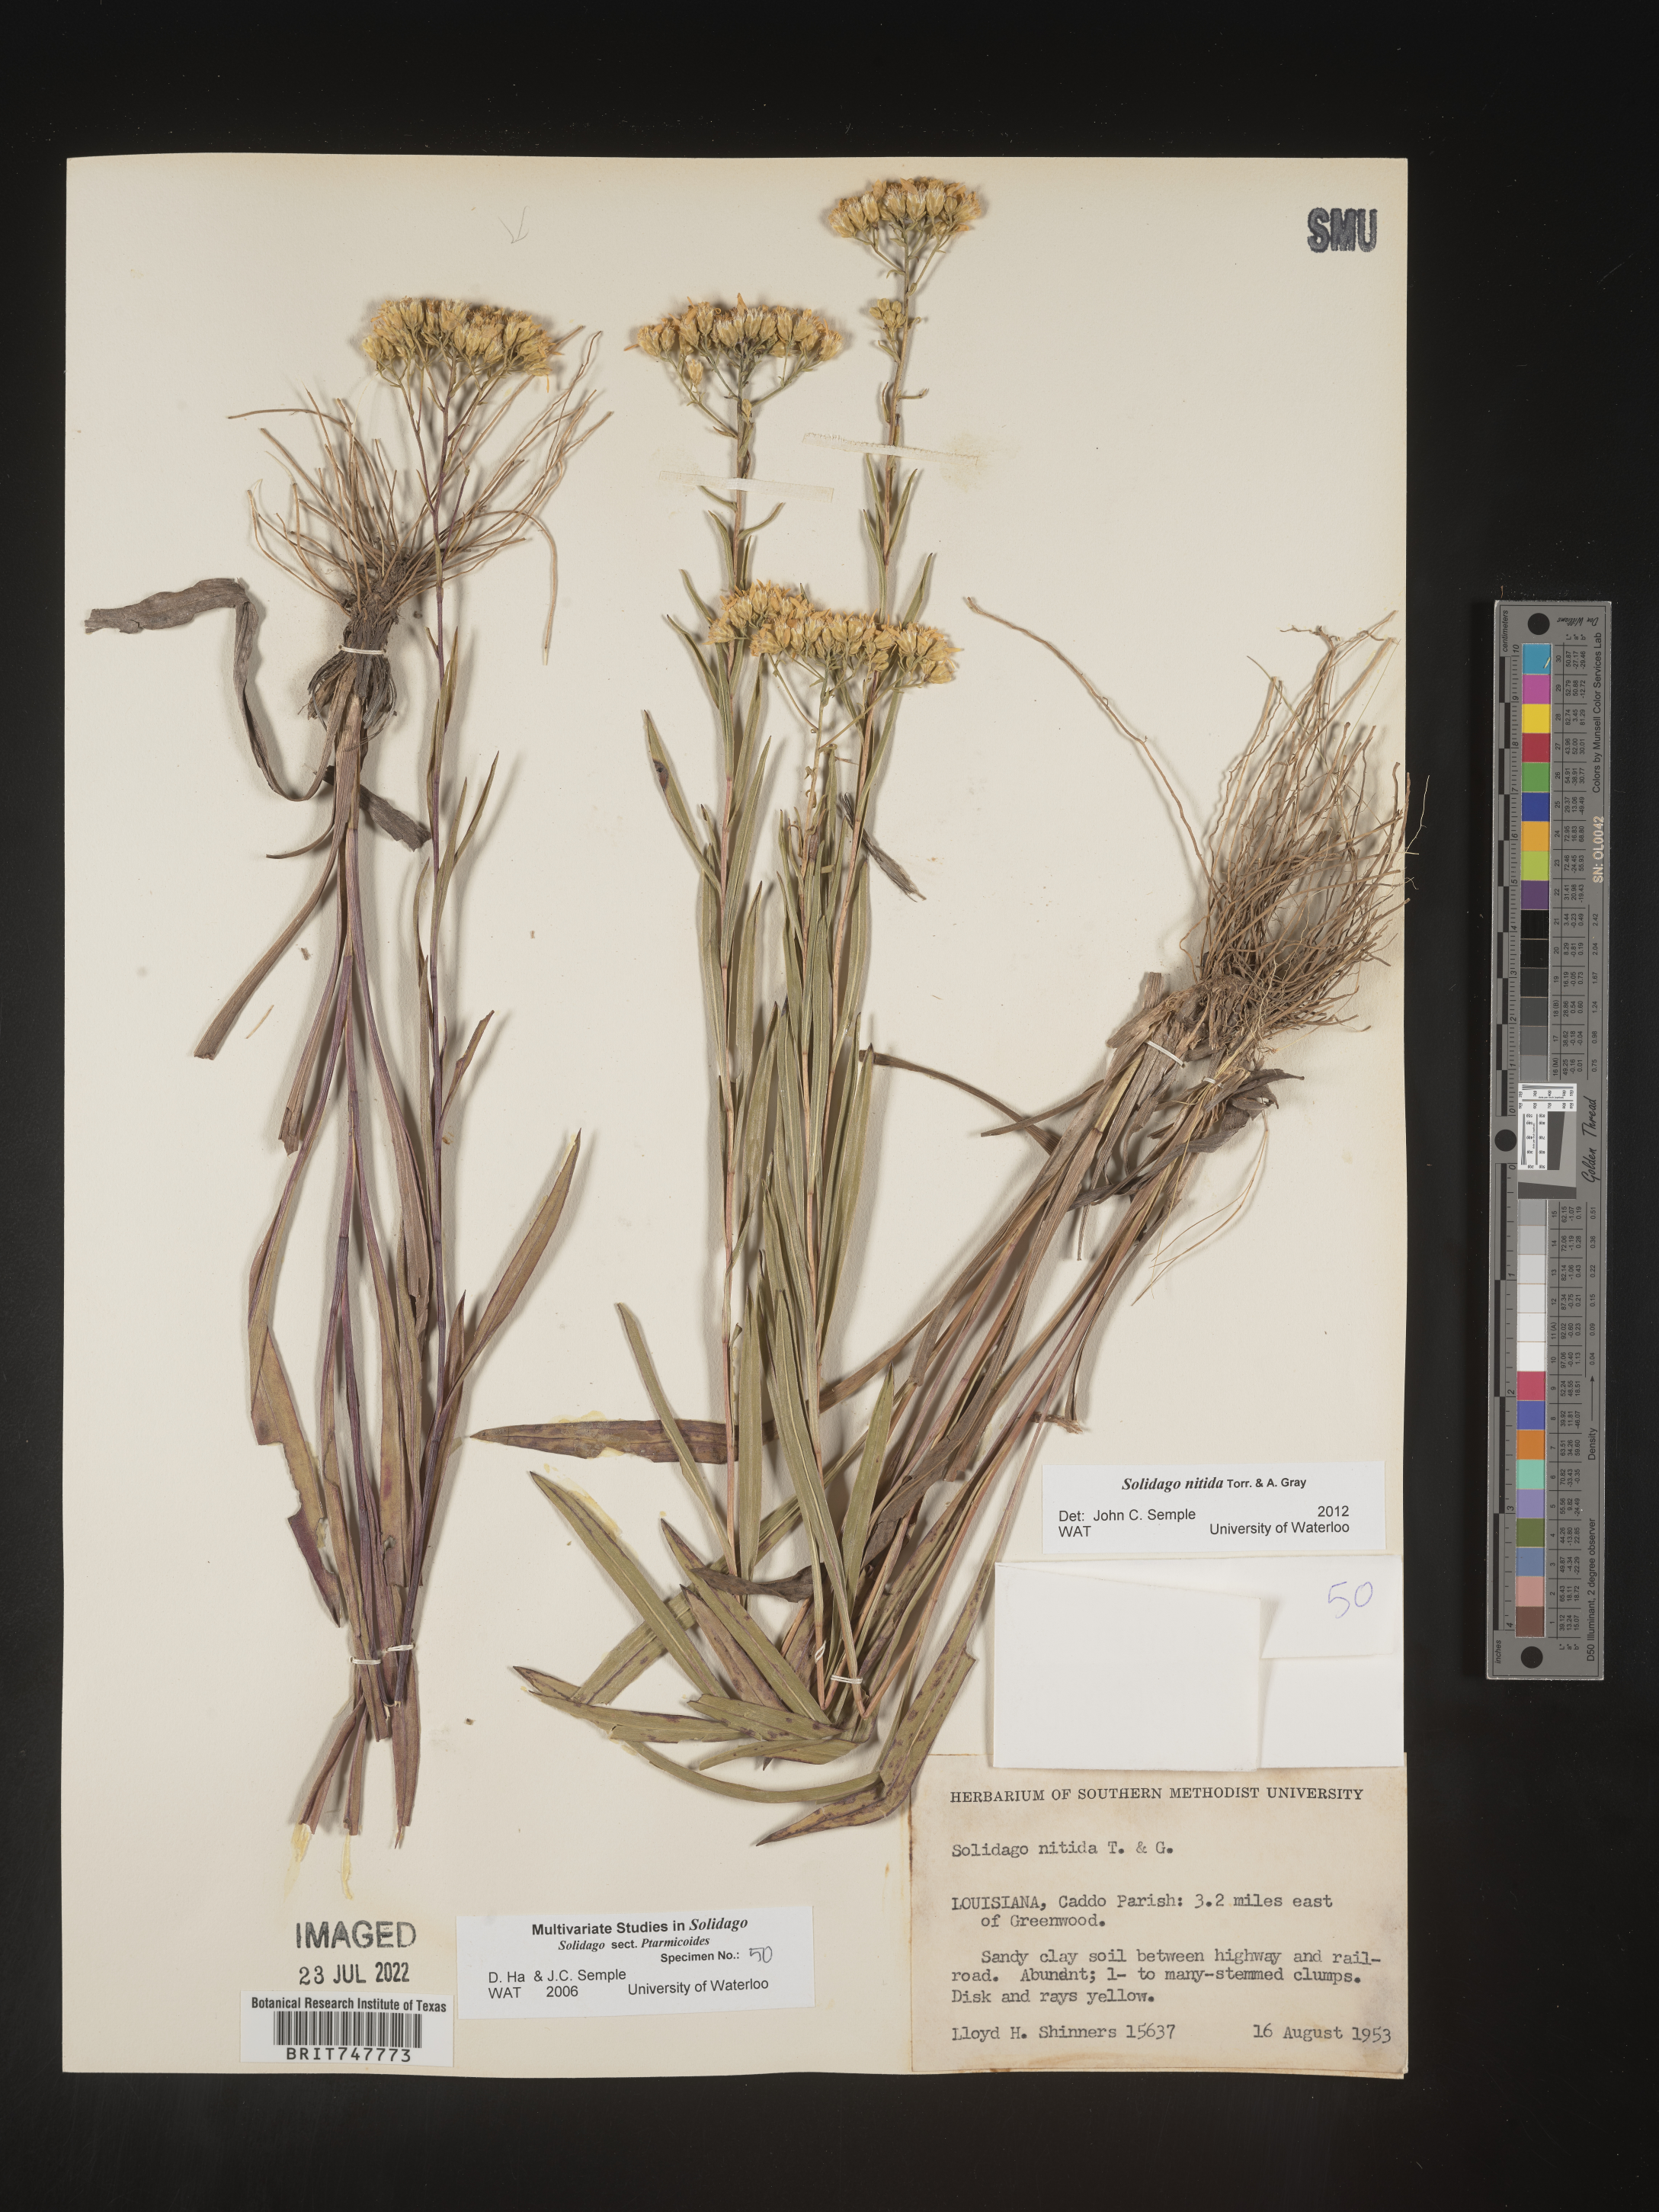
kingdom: Plantae
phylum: Tracheophyta
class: Magnoliopsida
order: Asterales
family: Asteraceae
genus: Solidago
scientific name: Solidago nitida
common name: Shiny goldenrod
